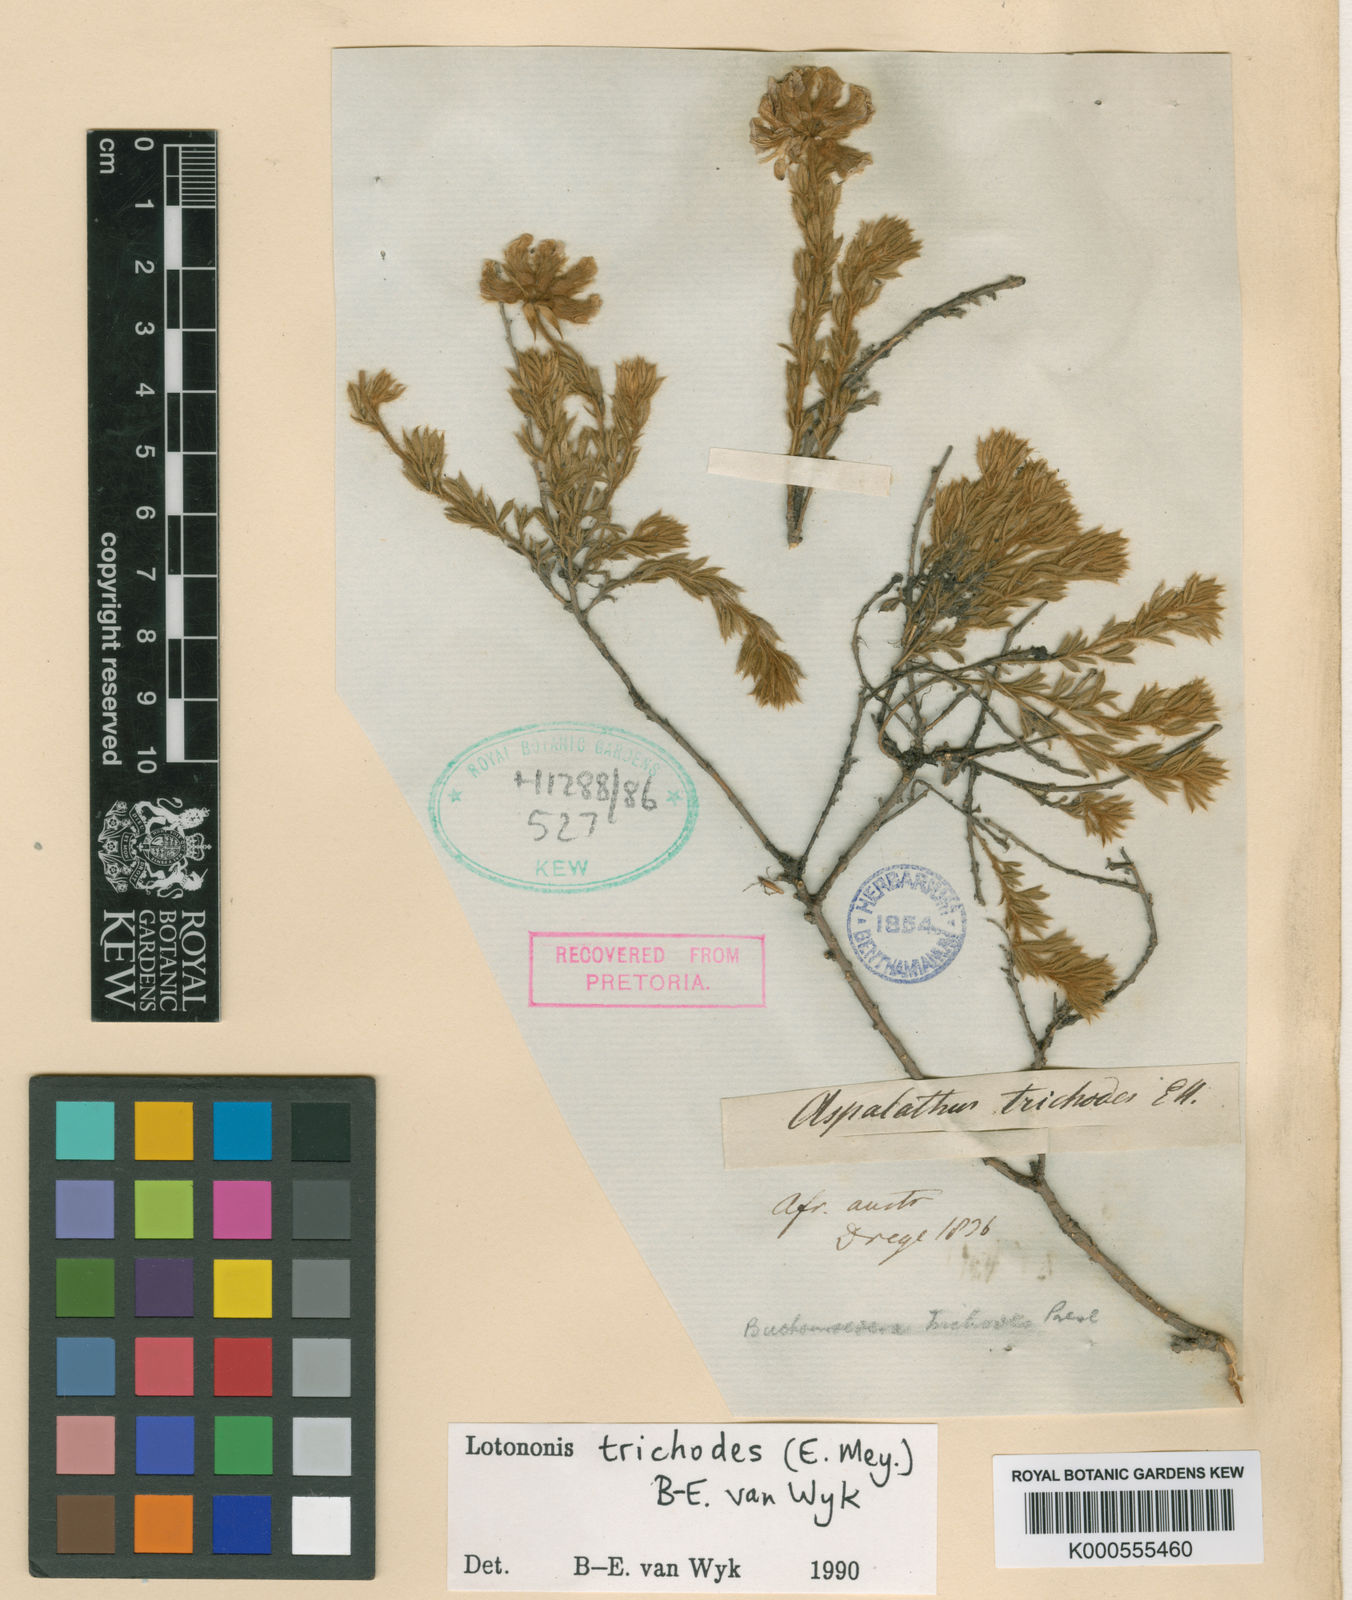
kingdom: Plantae
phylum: Tracheophyta
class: Magnoliopsida
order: Fabales
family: Fabaceae
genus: Lotononis
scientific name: Lotononis trichodes
